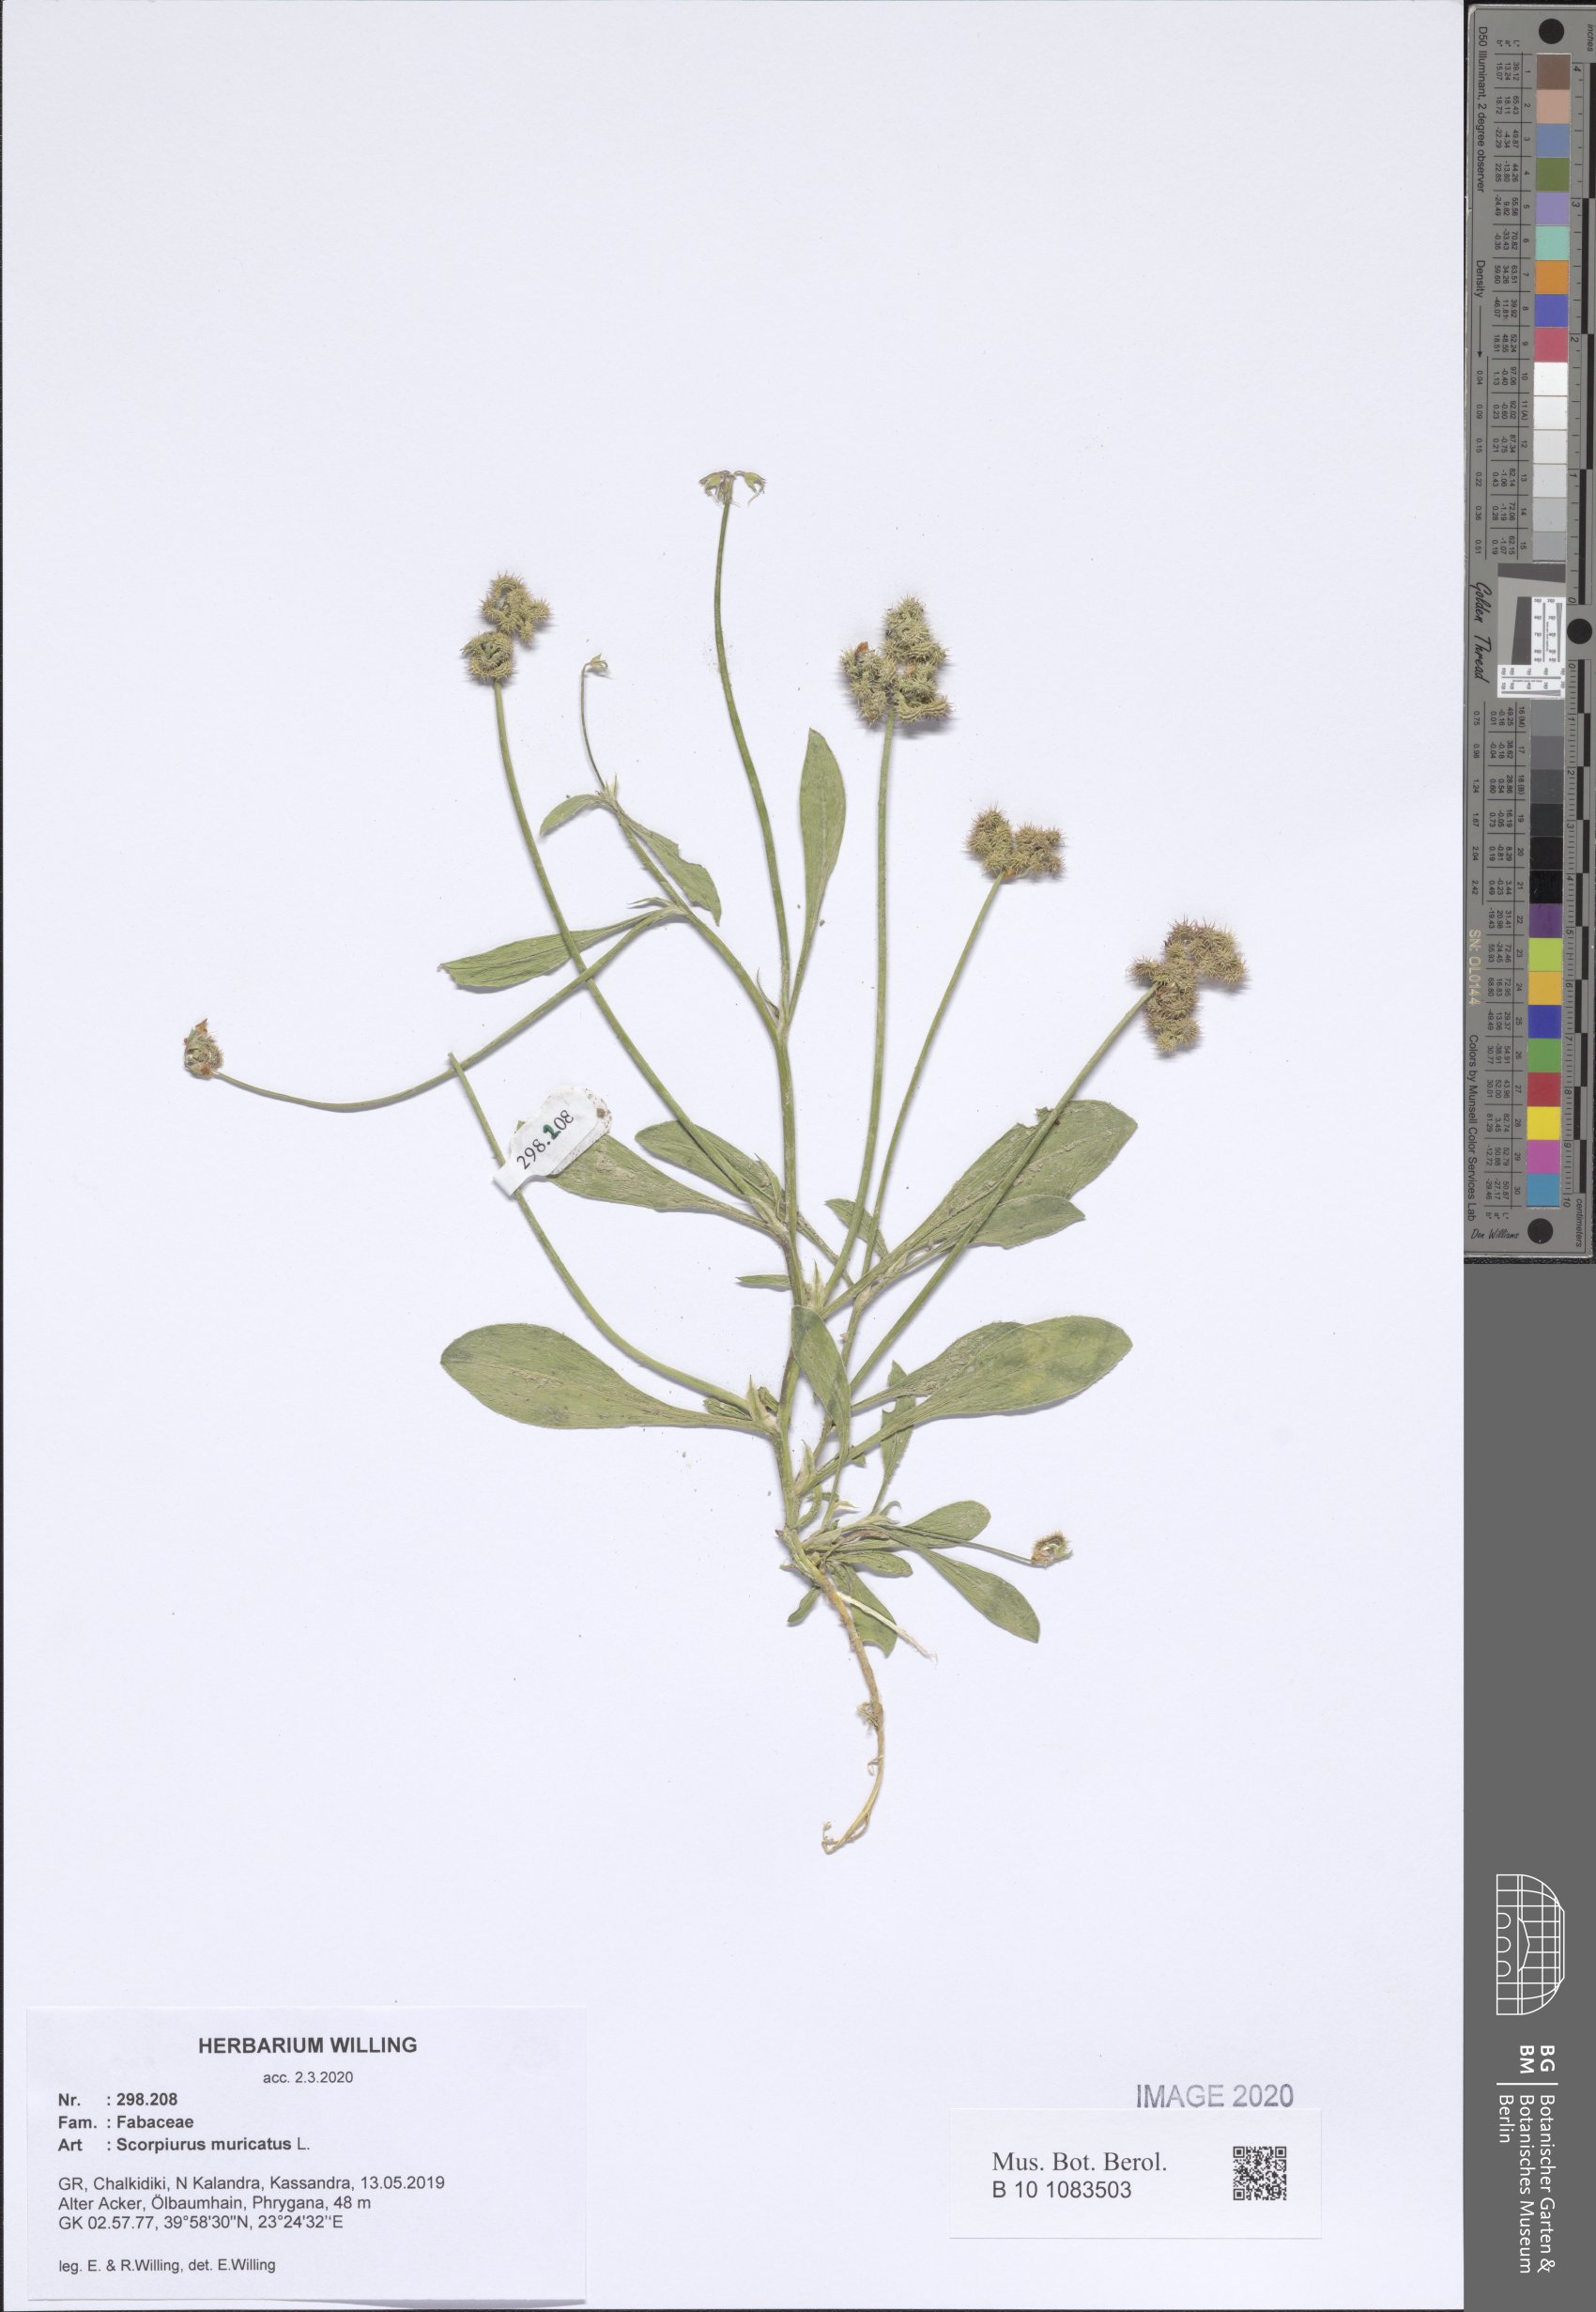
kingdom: Plantae
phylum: Tracheophyta
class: Magnoliopsida
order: Fabales
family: Fabaceae
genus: Scorpiurus
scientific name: Scorpiurus muricatus
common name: Caterpillar-plant
